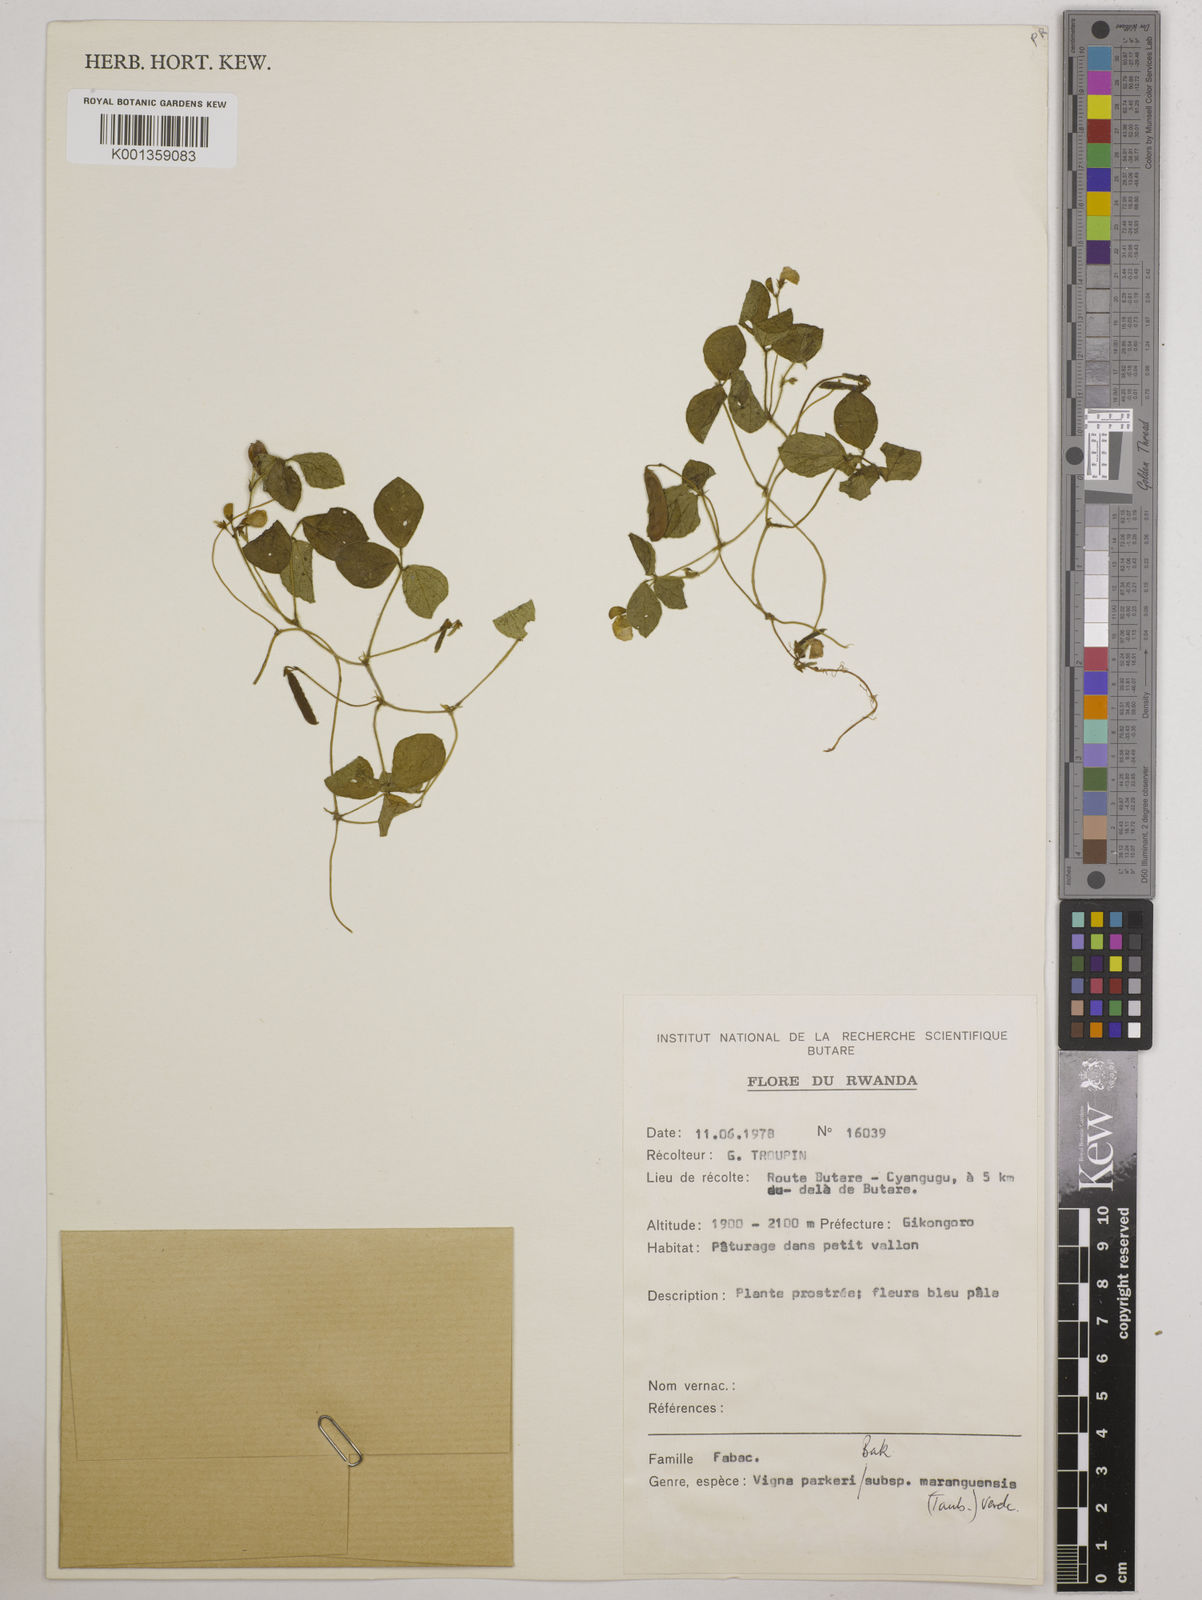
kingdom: Plantae
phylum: Tracheophyta
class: Magnoliopsida
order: Fabales
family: Fabaceae
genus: Vigna
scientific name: Vigna
